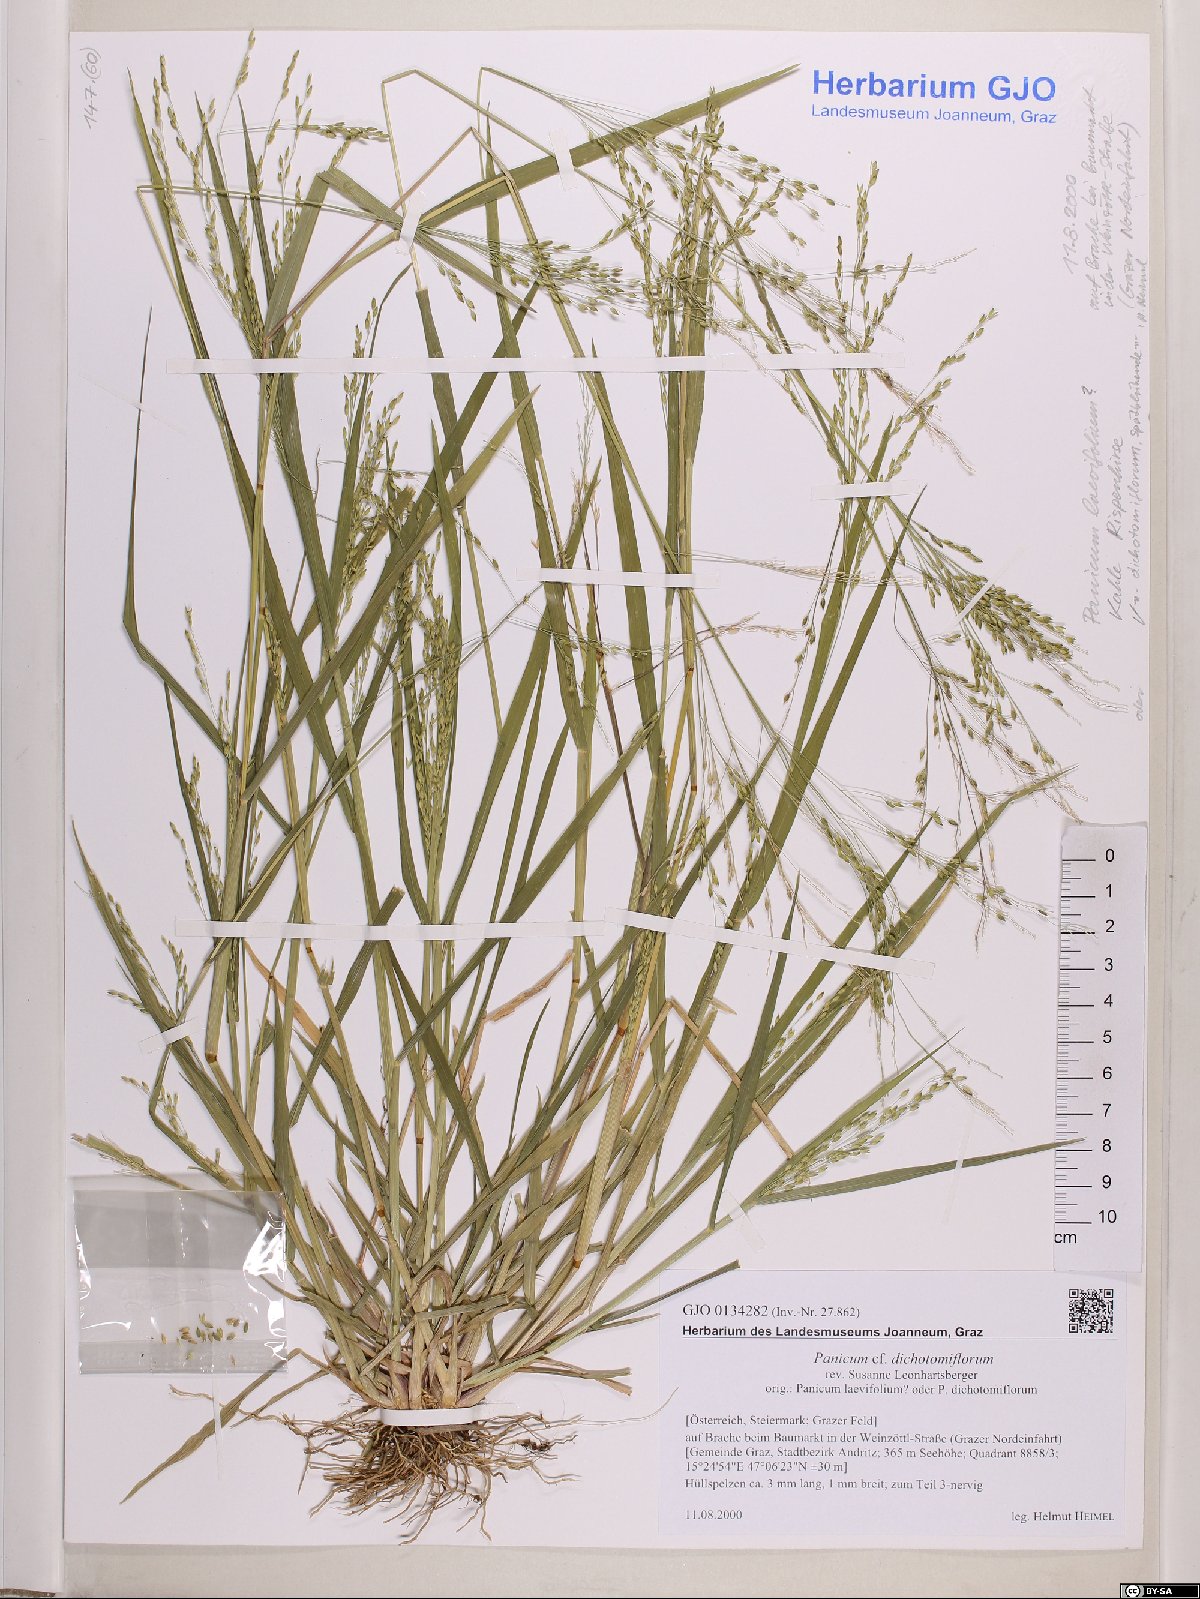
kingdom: Plantae
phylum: Tracheophyta
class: Liliopsida
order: Poales
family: Poaceae
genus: Panicum
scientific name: Panicum dichotomiflorum
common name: Autumn millet
